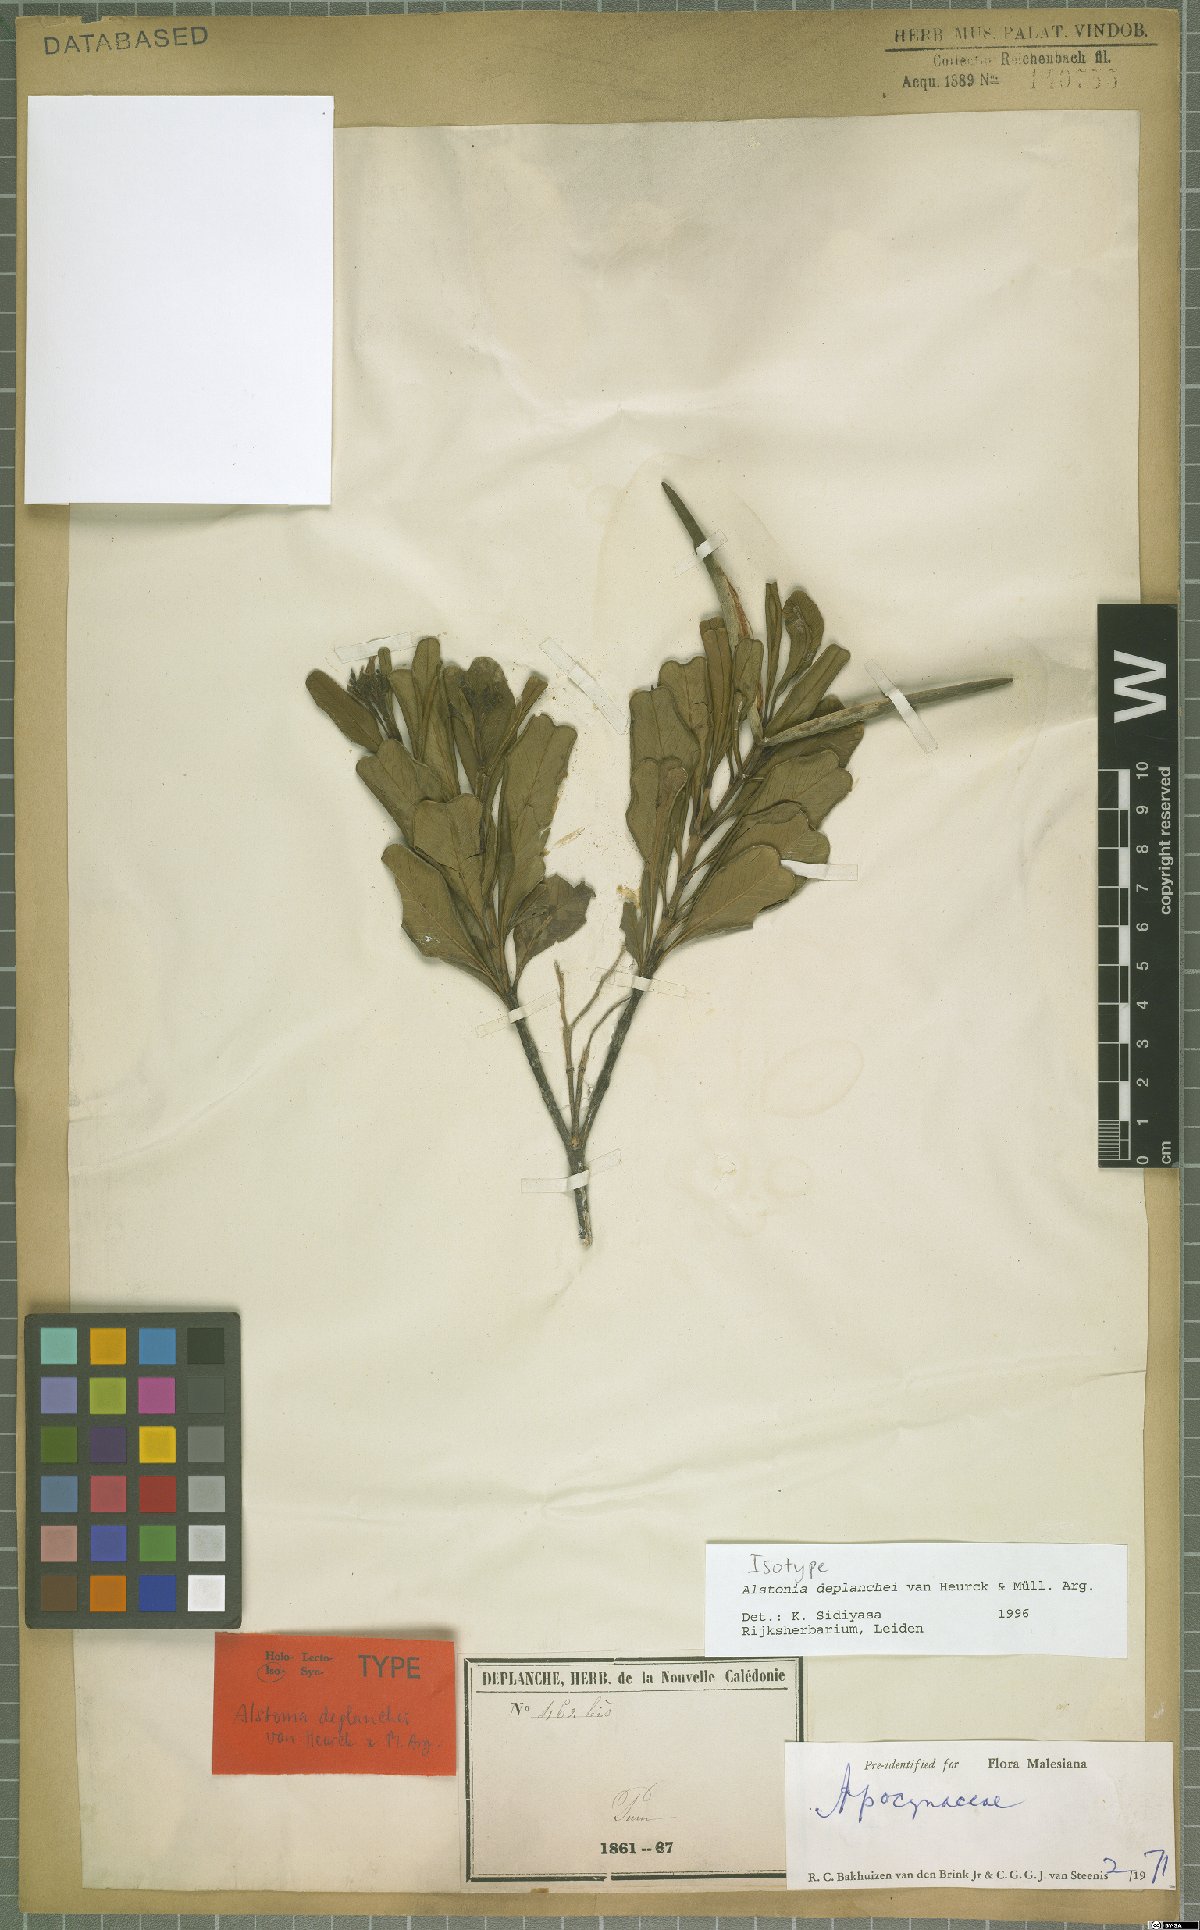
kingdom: Plantae
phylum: Tracheophyta
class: Magnoliopsida
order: Gentianales
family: Apocynaceae
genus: Alstonia
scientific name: Alstonia deplanchei
